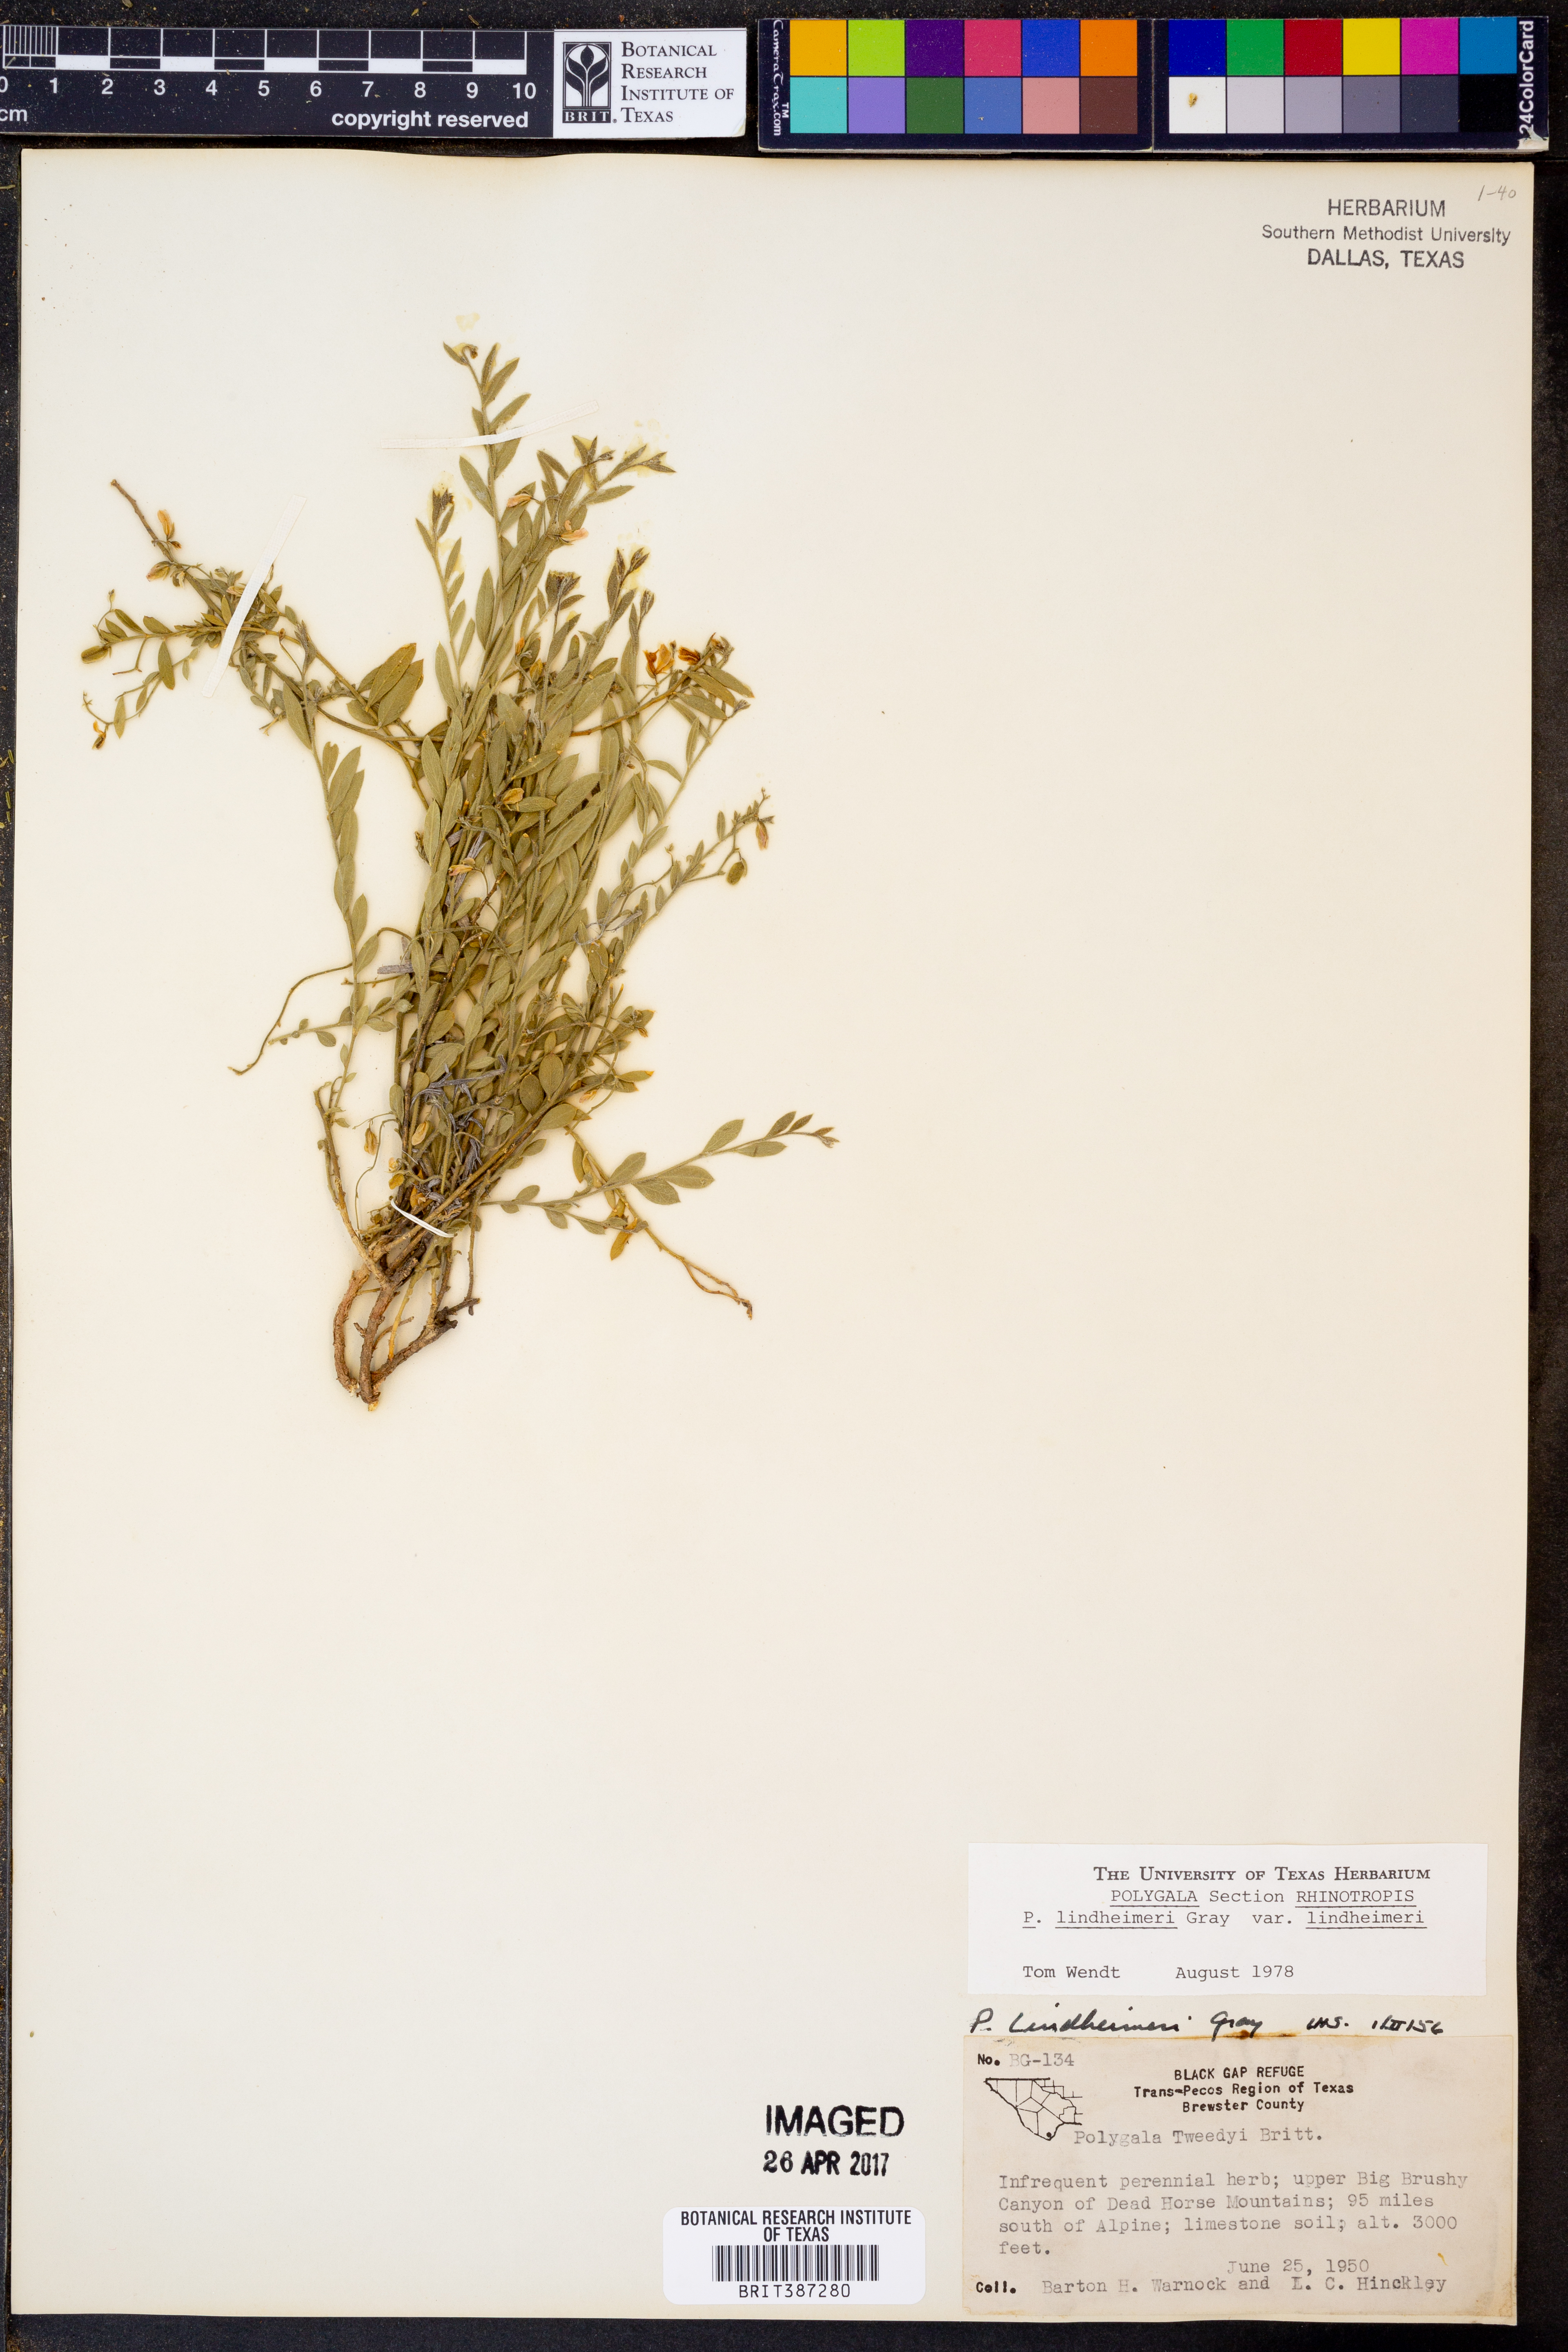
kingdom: Plantae
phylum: Tracheophyta
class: Magnoliopsida
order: Fabales
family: Polygalaceae
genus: Rhinotropis
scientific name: Rhinotropis lindheimeri
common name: Shrubby milkwort
